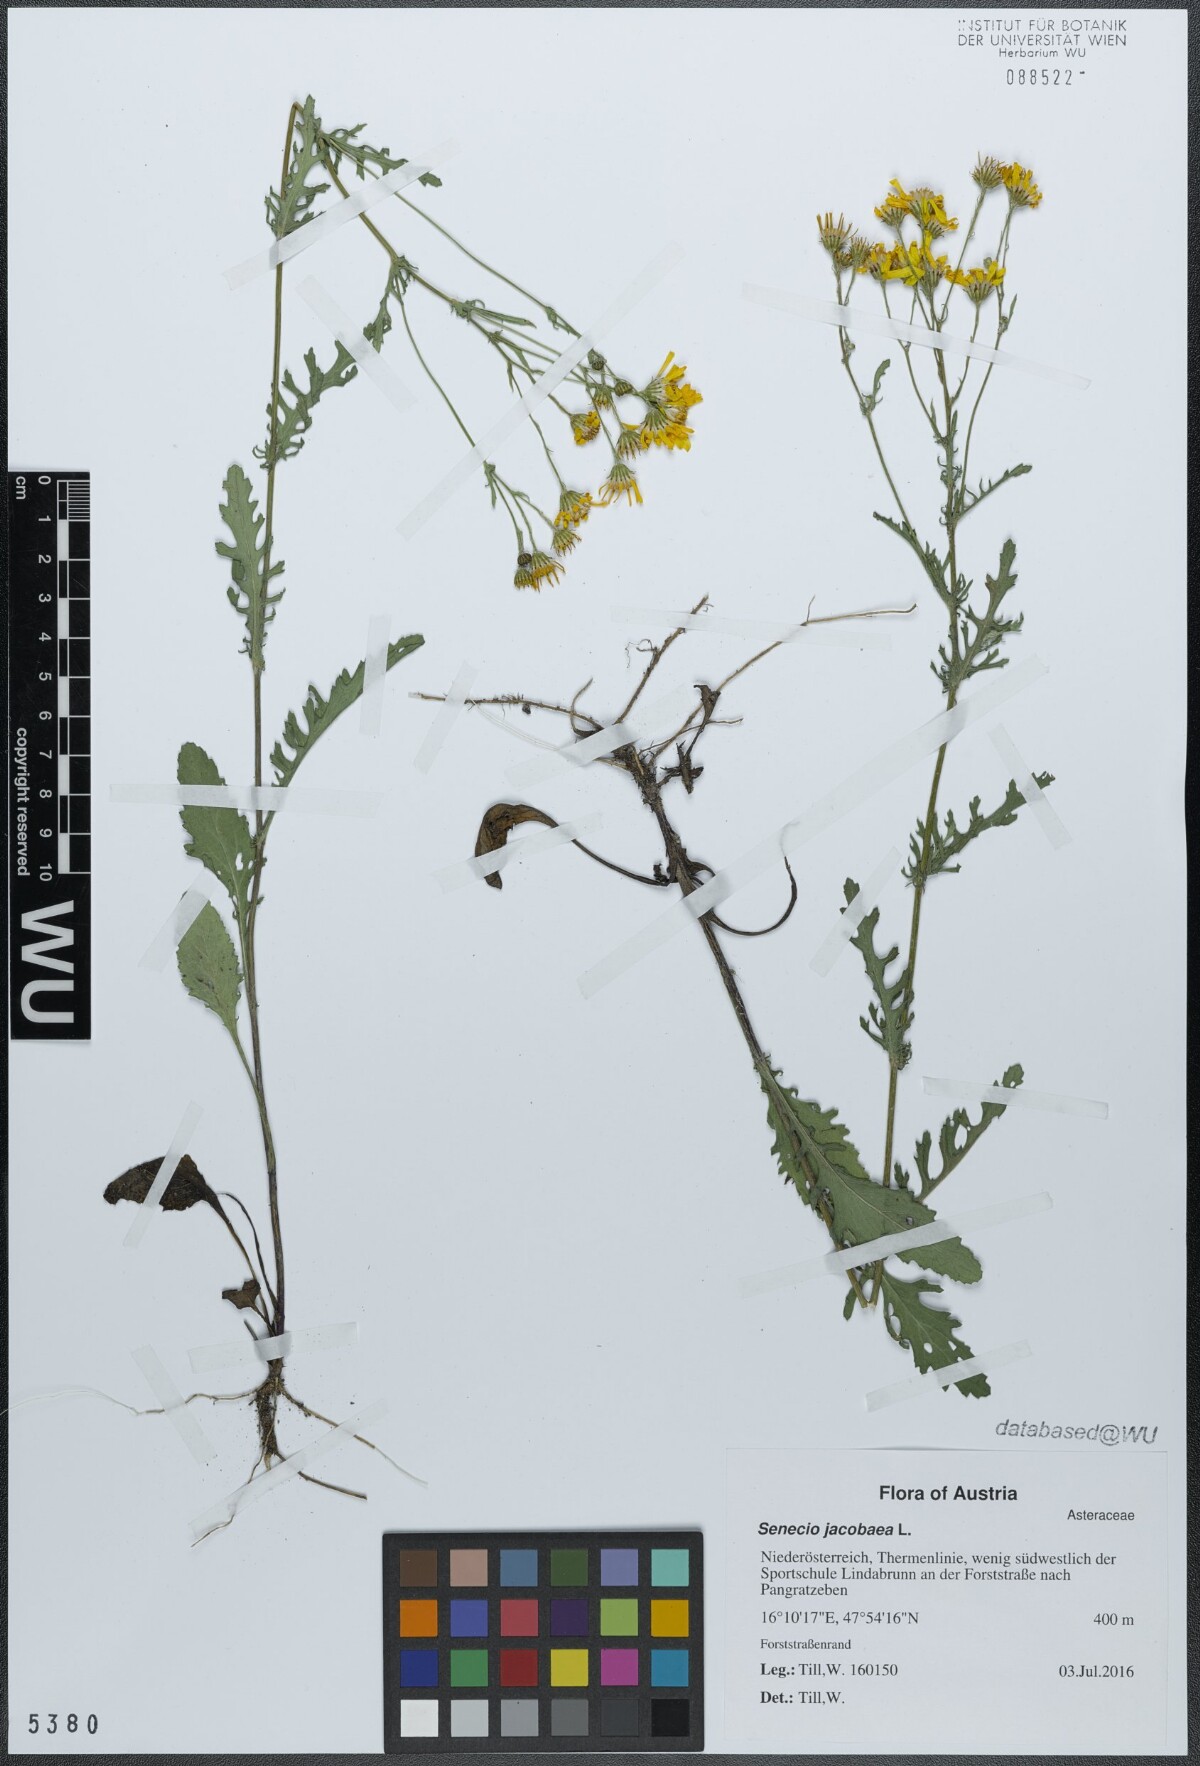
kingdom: Plantae
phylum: Tracheophyta
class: Magnoliopsida
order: Asterales
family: Asteraceae
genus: Jacobaea
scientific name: Jacobaea vulgaris
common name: Stinking willie
